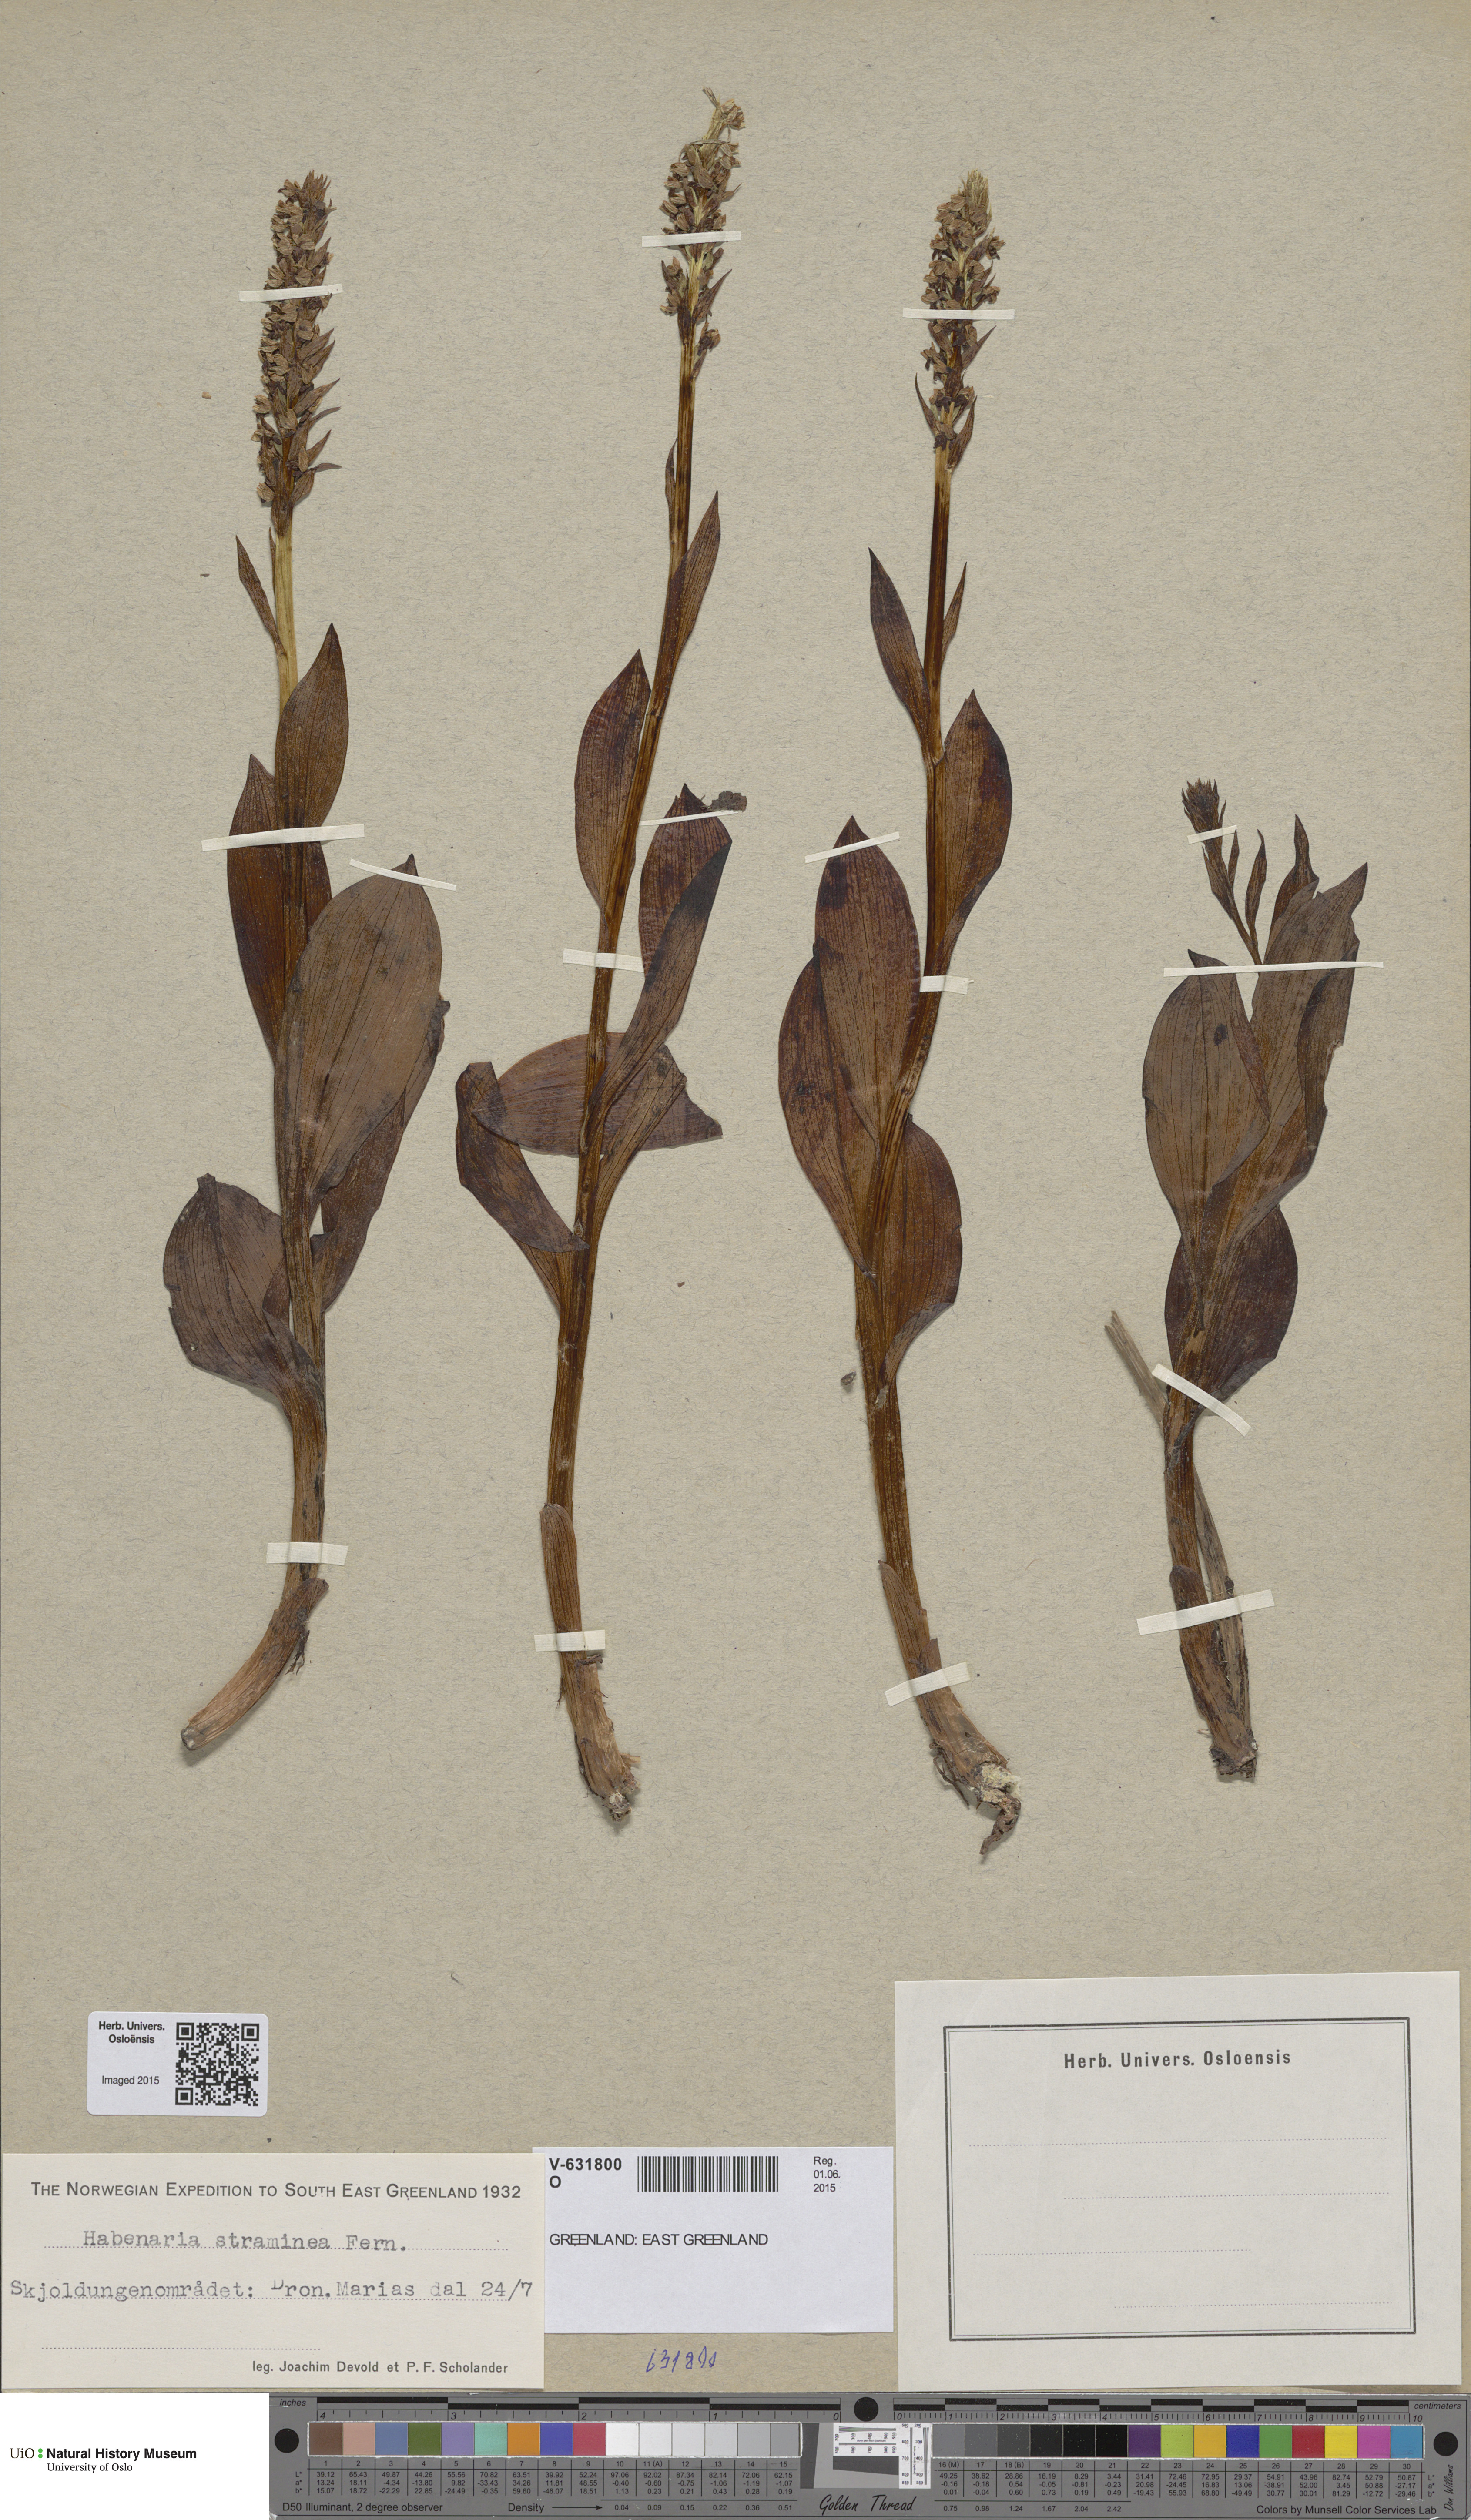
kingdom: Plantae
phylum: Tracheophyta
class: Liliopsida
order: Asparagales
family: Orchidaceae
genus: Pseudorchis
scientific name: Pseudorchis straminea
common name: Vanilla-scented bog orchid
